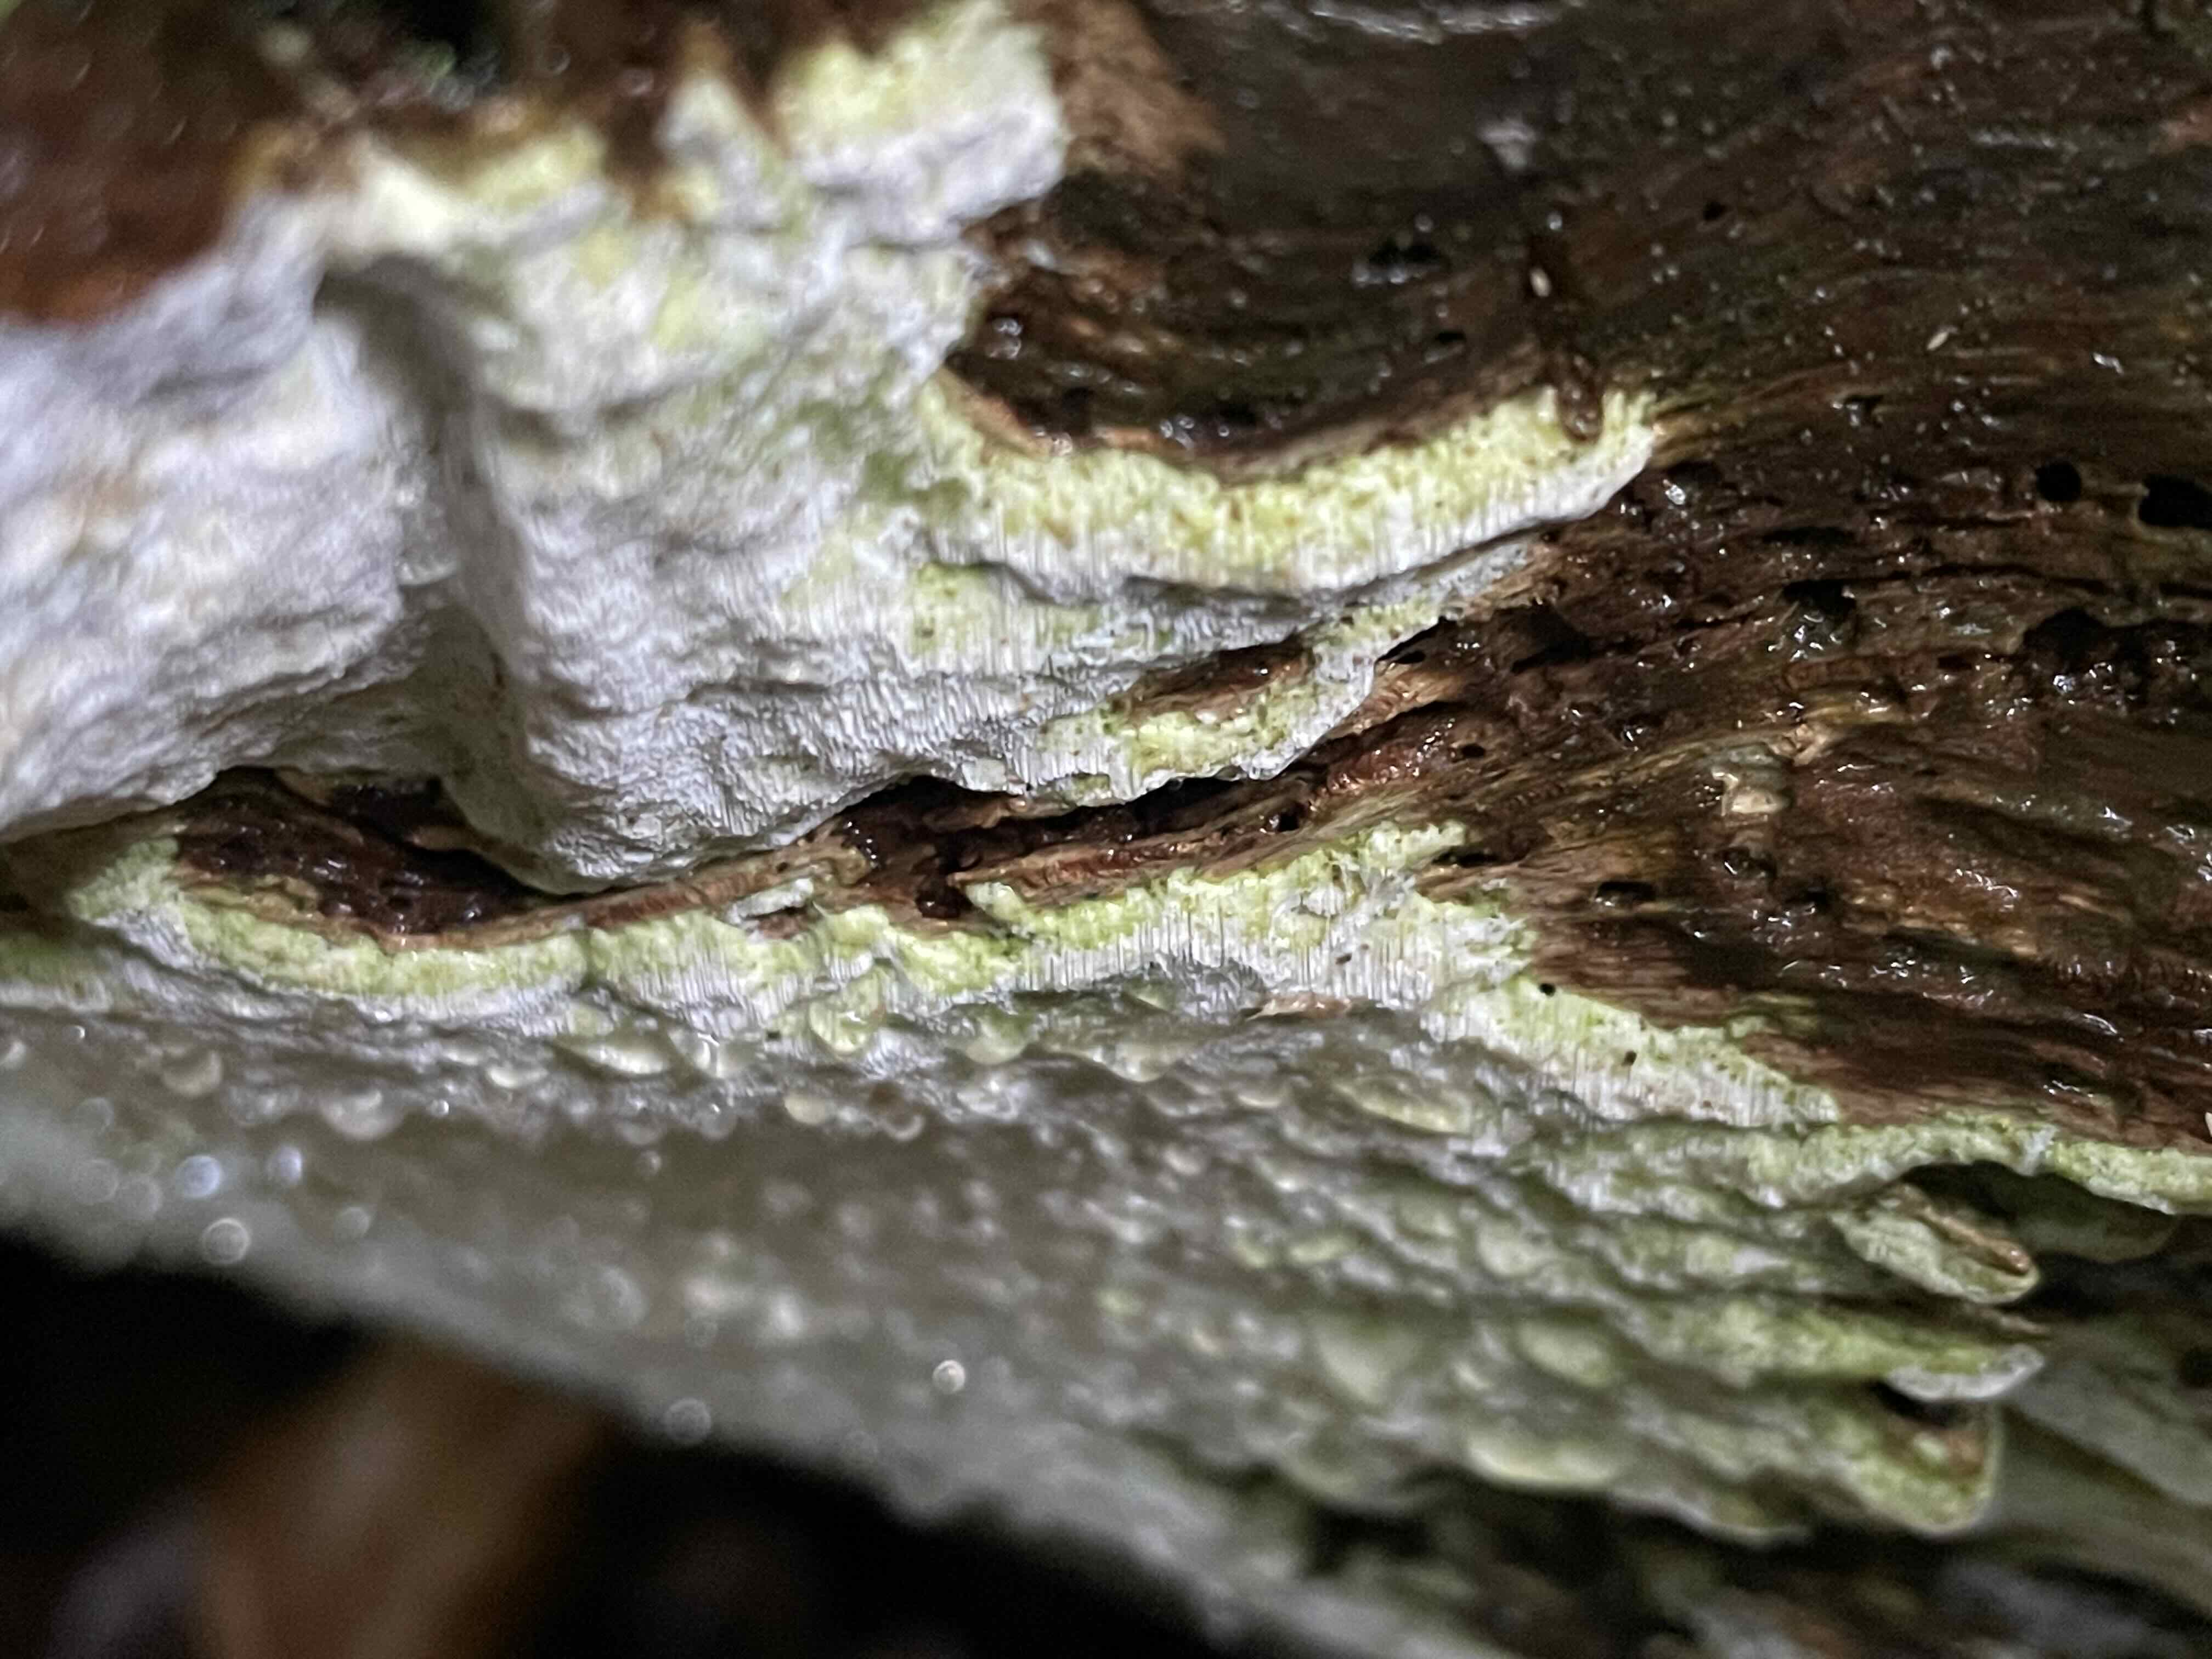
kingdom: Fungi
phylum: Basidiomycota
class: Agaricomycetes
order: Polyporales
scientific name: Polyporales
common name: poresvampordenen
